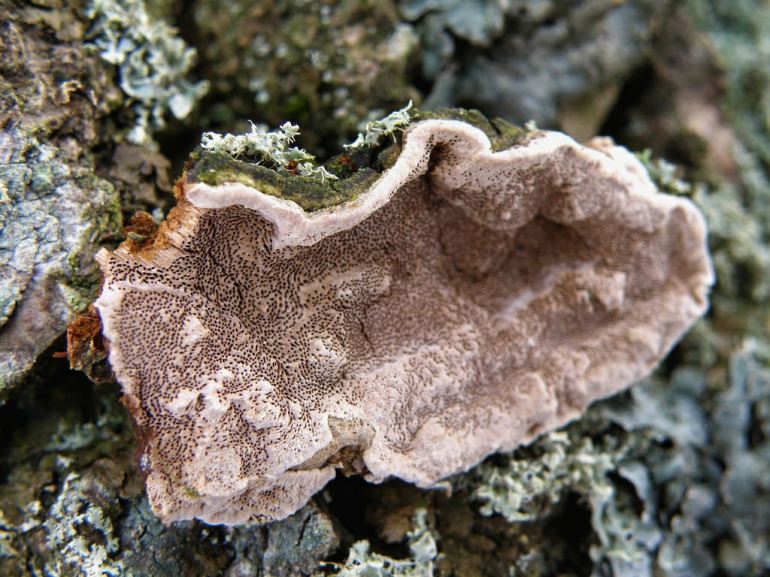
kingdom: Fungi
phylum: Basidiomycota
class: Agaricomycetes
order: Hymenochaetales
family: Hymenochaetaceae
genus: Phellinopsis
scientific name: Phellinopsis conchata
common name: pile-ildporesvamp
